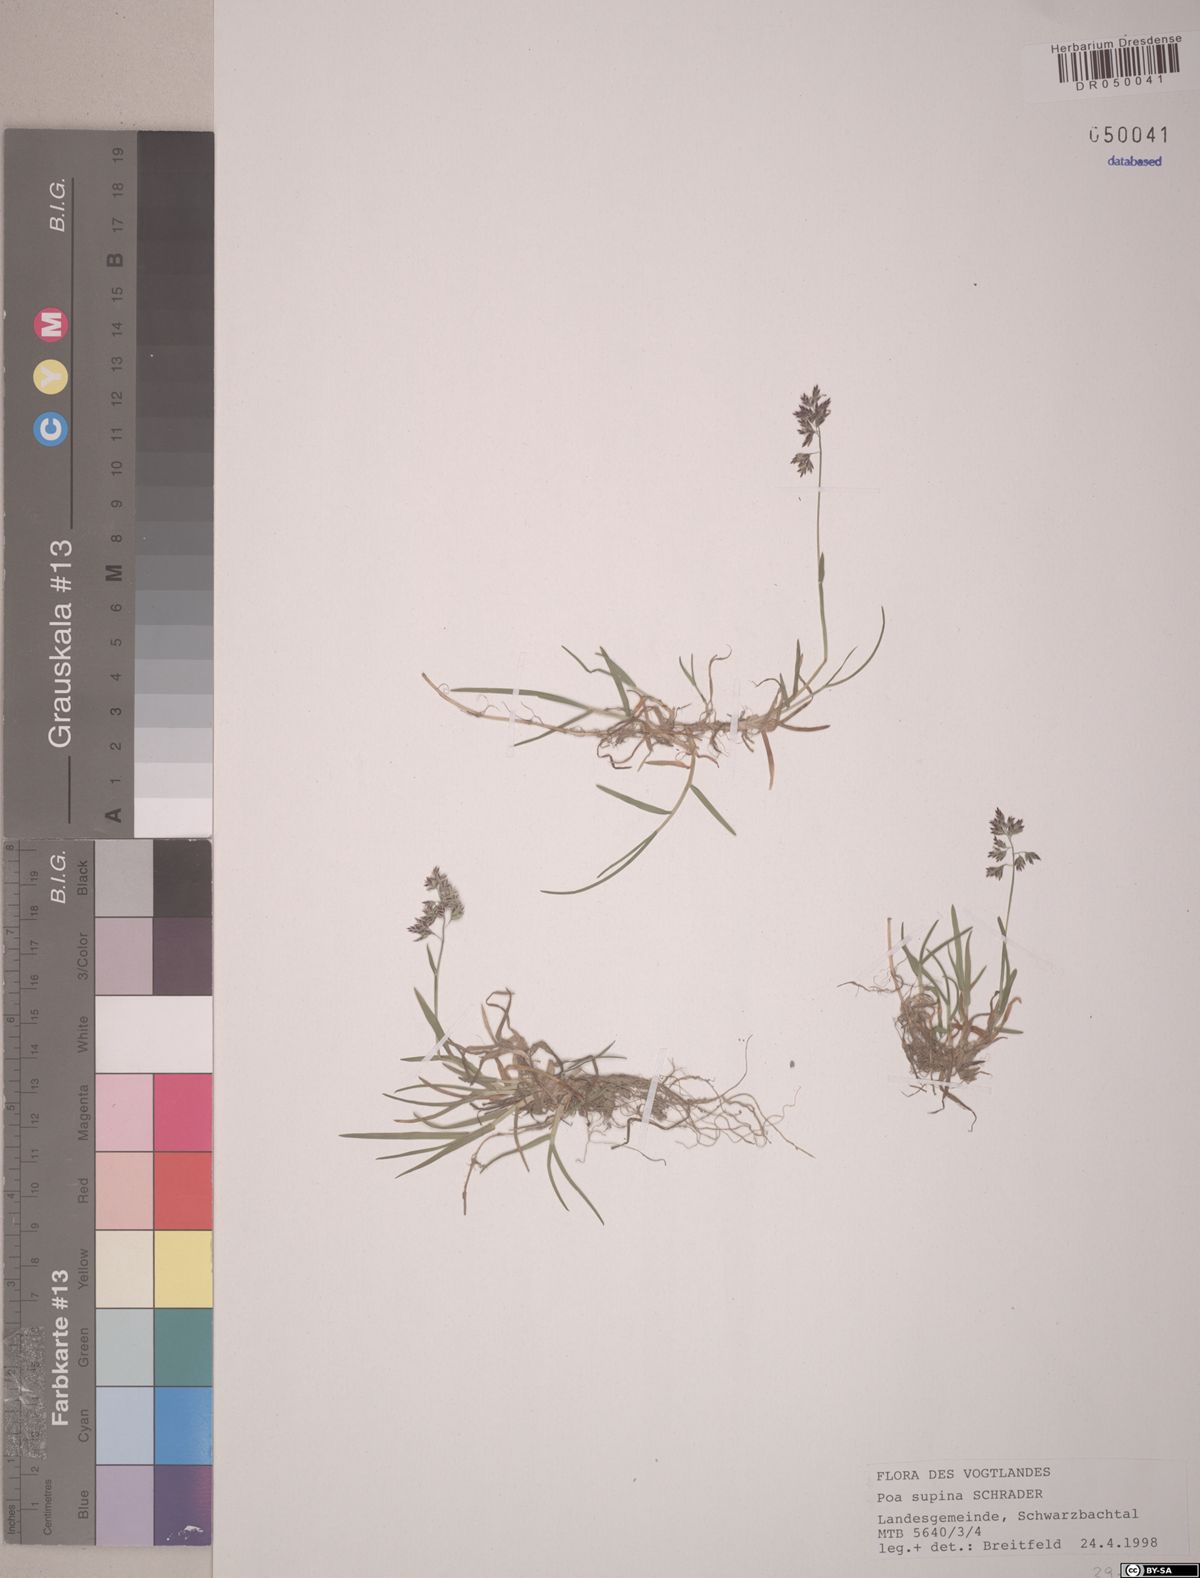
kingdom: Plantae
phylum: Tracheophyta
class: Liliopsida
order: Poales
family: Poaceae
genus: Poa
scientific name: Poa supina
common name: Supina bluegrass
